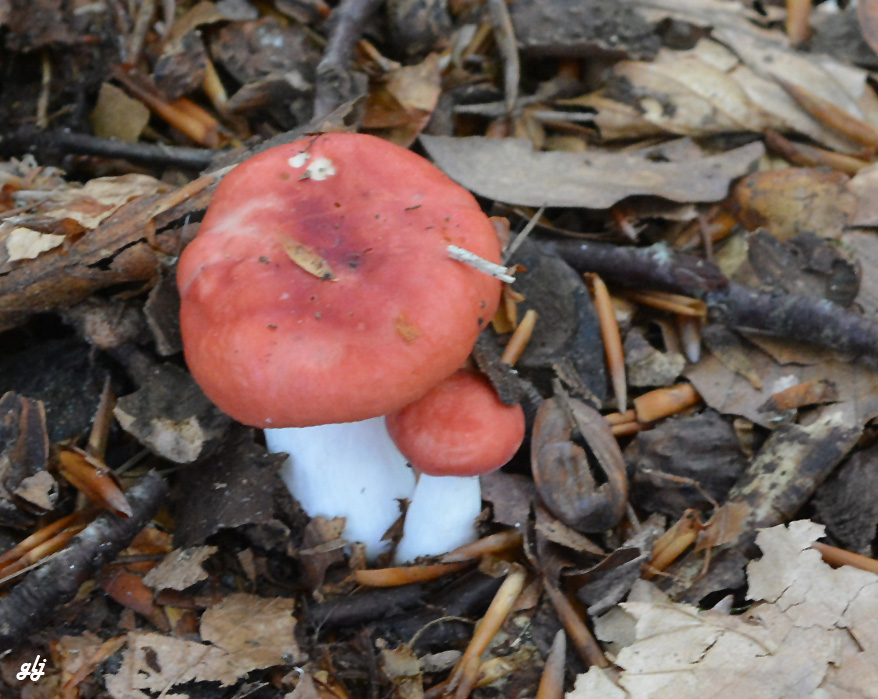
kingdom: Fungi
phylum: Basidiomycota
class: Agaricomycetes
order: Russulales
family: Russulaceae
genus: Russula
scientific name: Russula nobilis
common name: lille gift-skørhat
